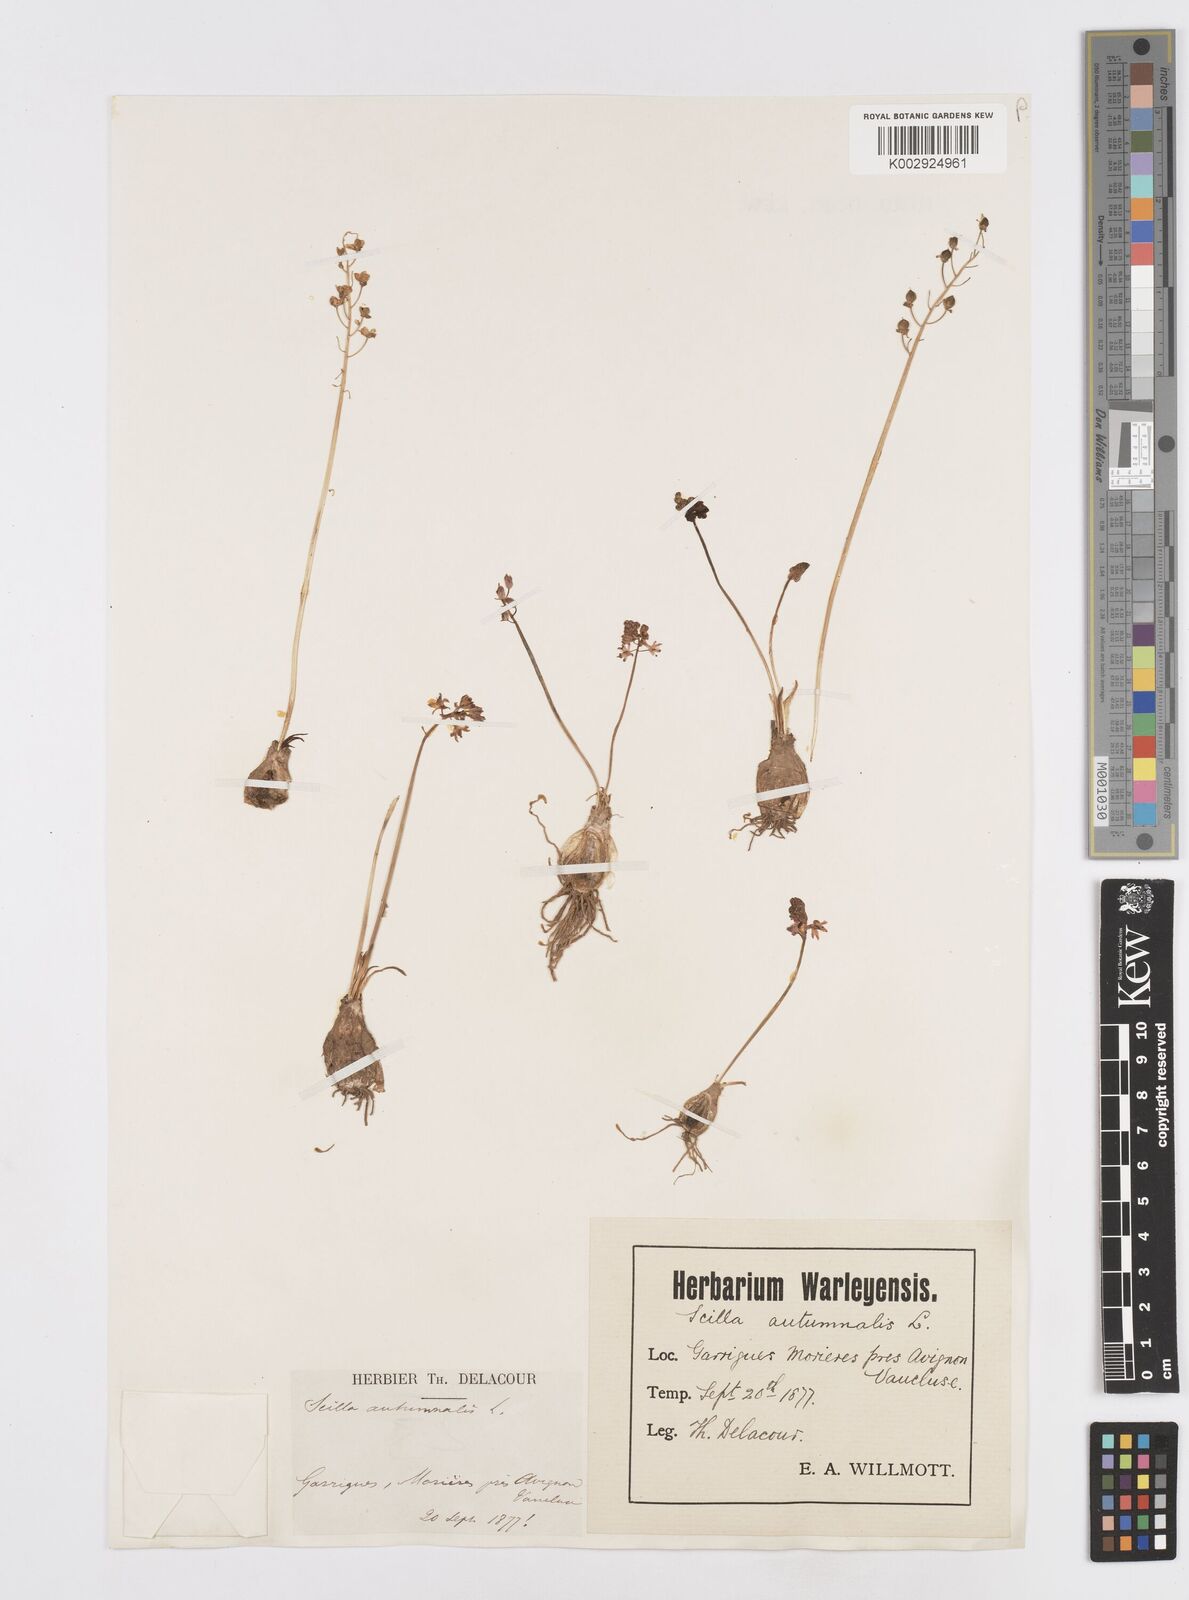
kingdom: Plantae
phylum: Tracheophyta
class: Liliopsida
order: Asparagales
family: Asparagaceae
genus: Prospero
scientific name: Prospero autumnale
